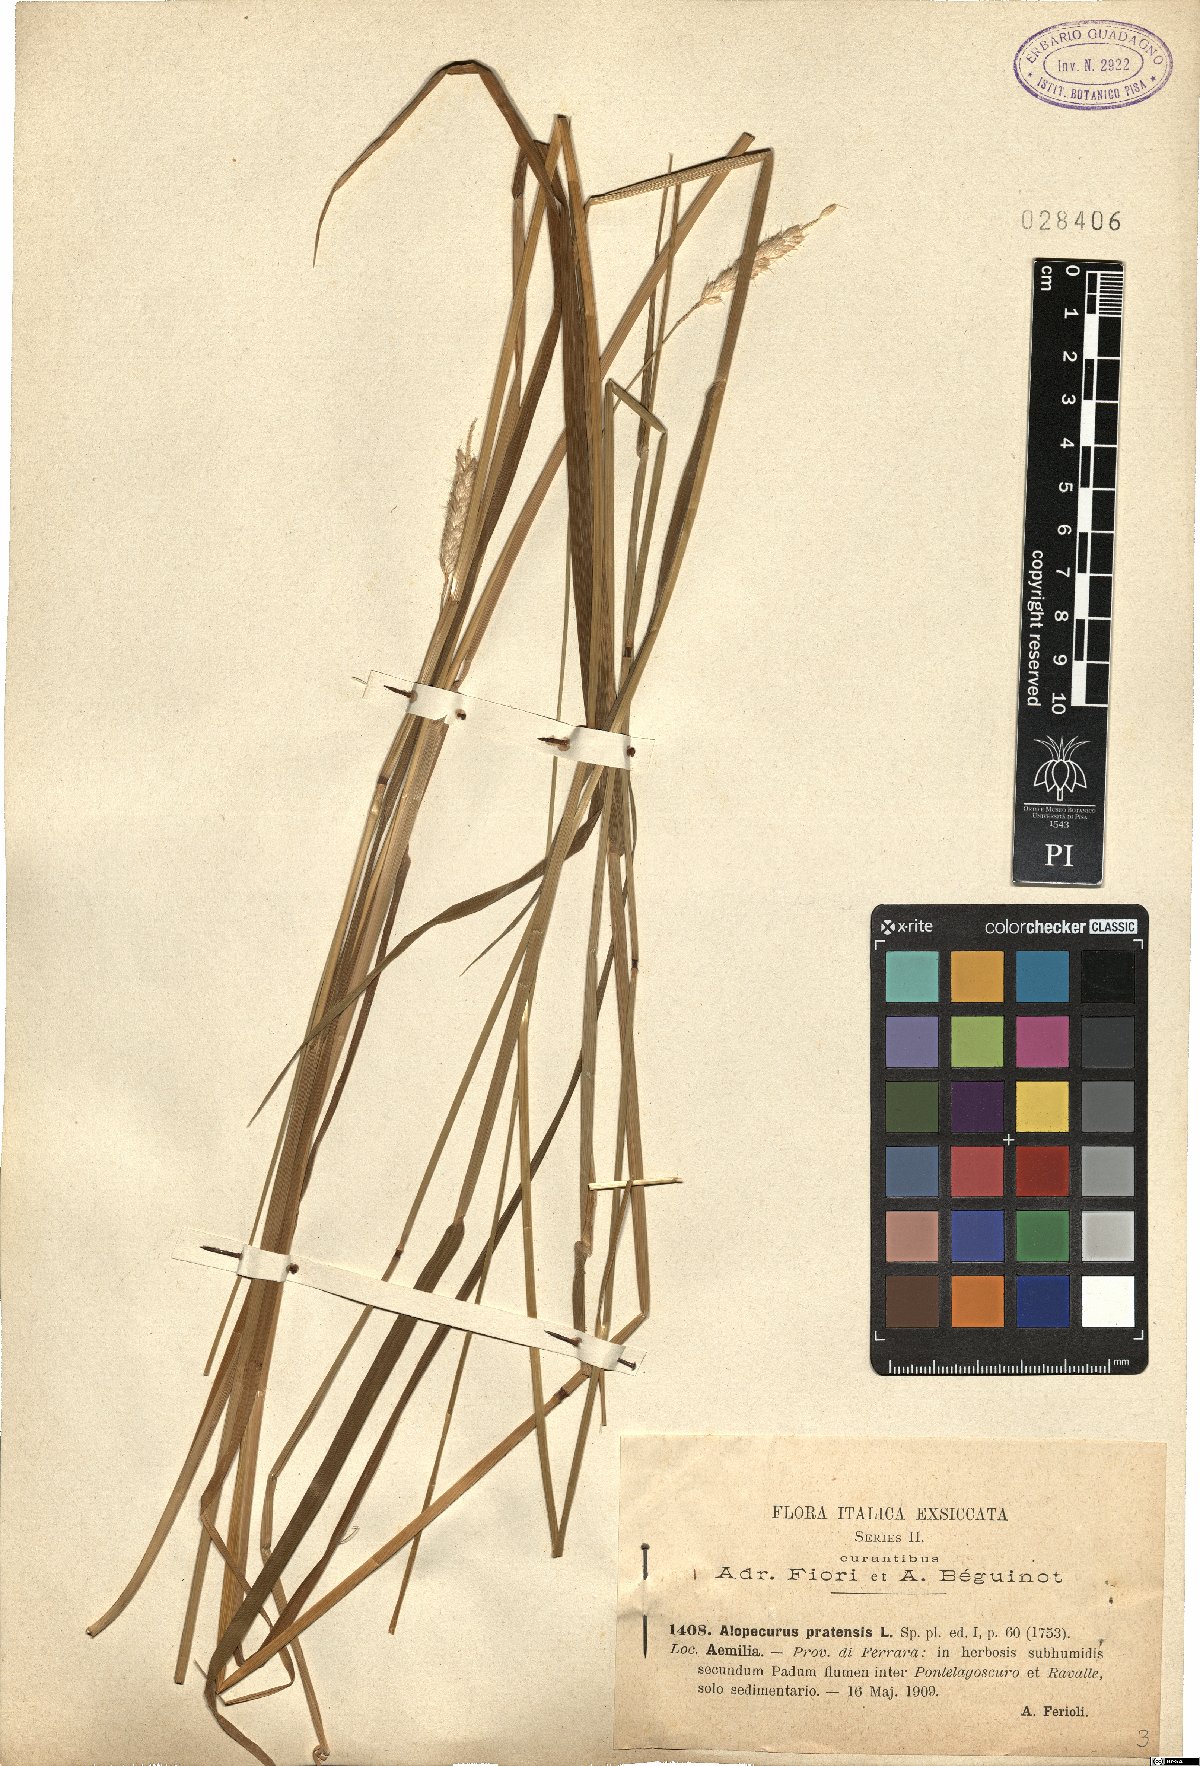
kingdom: Plantae
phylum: Tracheophyta
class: Liliopsida
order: Poales
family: Poaceae
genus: Alopecurus
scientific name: Alopecurus pratensis
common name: Meadow foxtail
